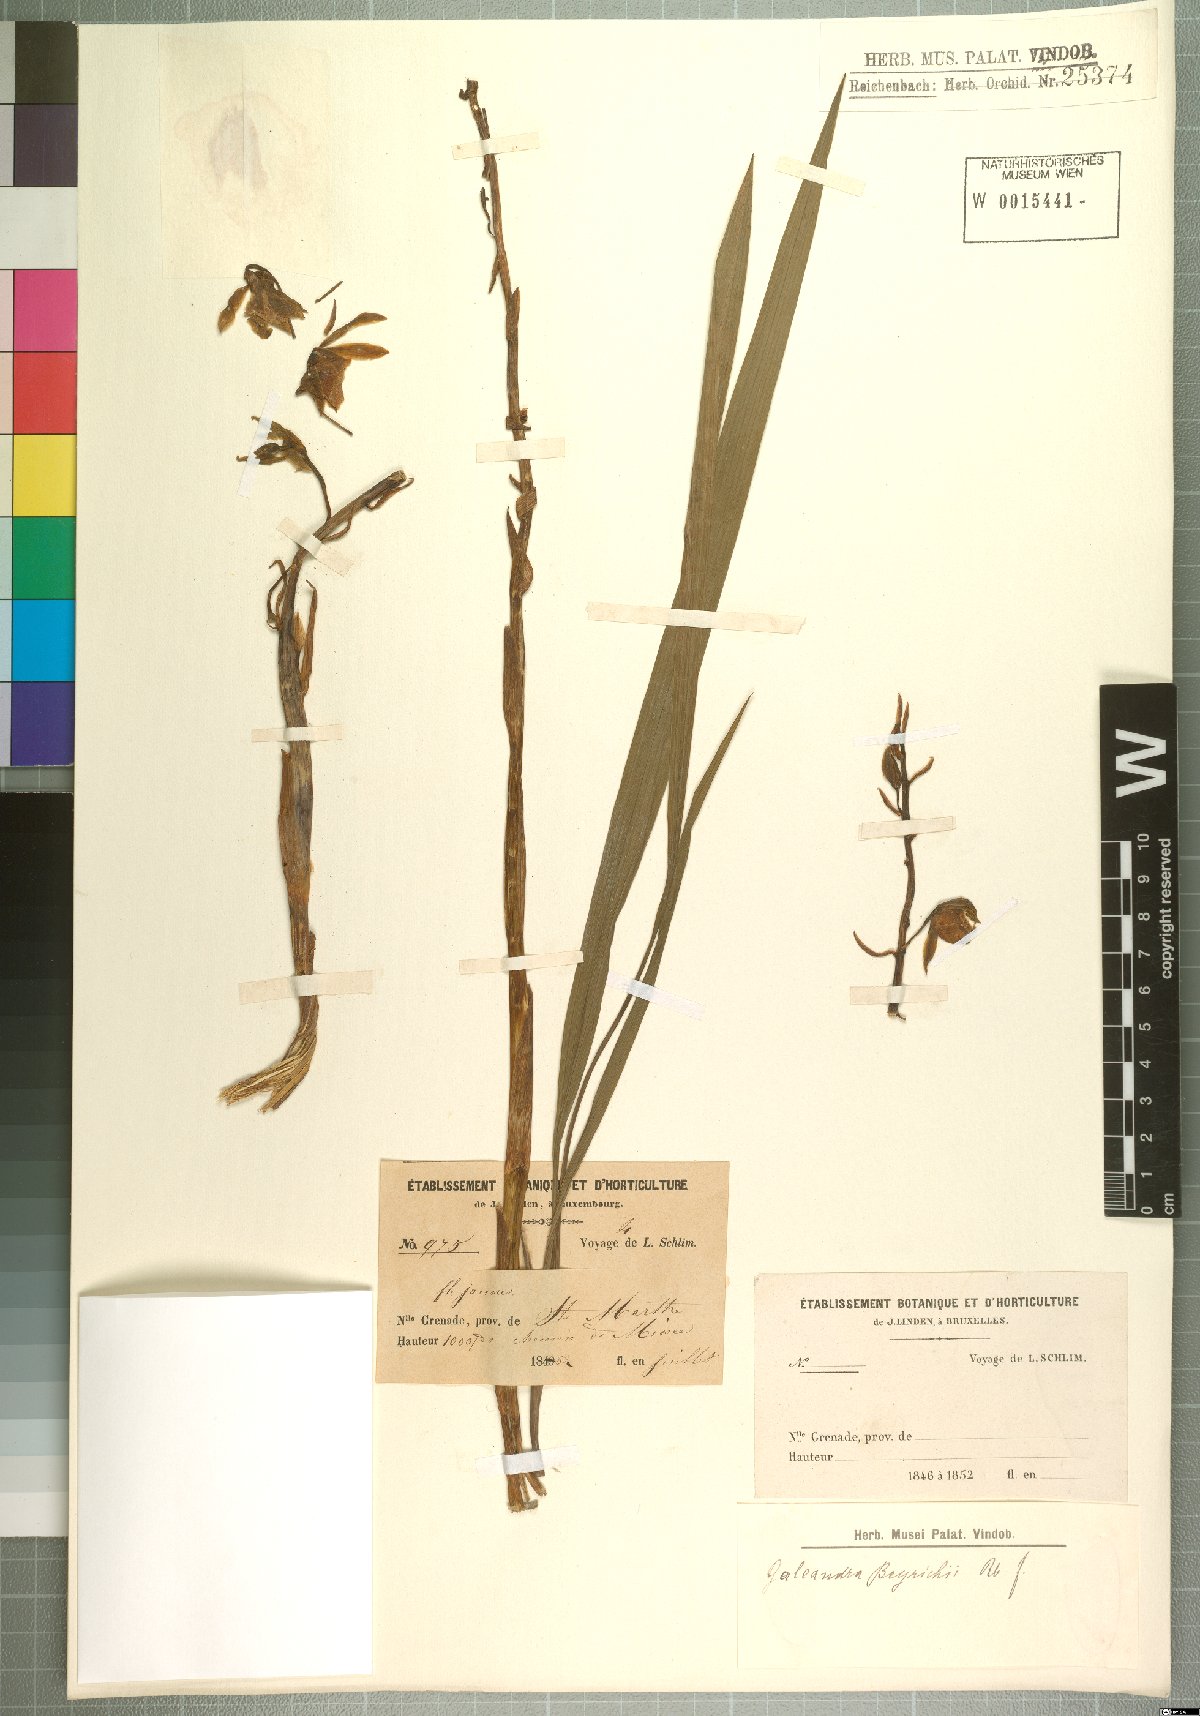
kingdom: Plantae
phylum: Tracheophyta
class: Liliopsida
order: Asparagales
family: Orchidaceae
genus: Galeandra
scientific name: Galeandra beyrichii
